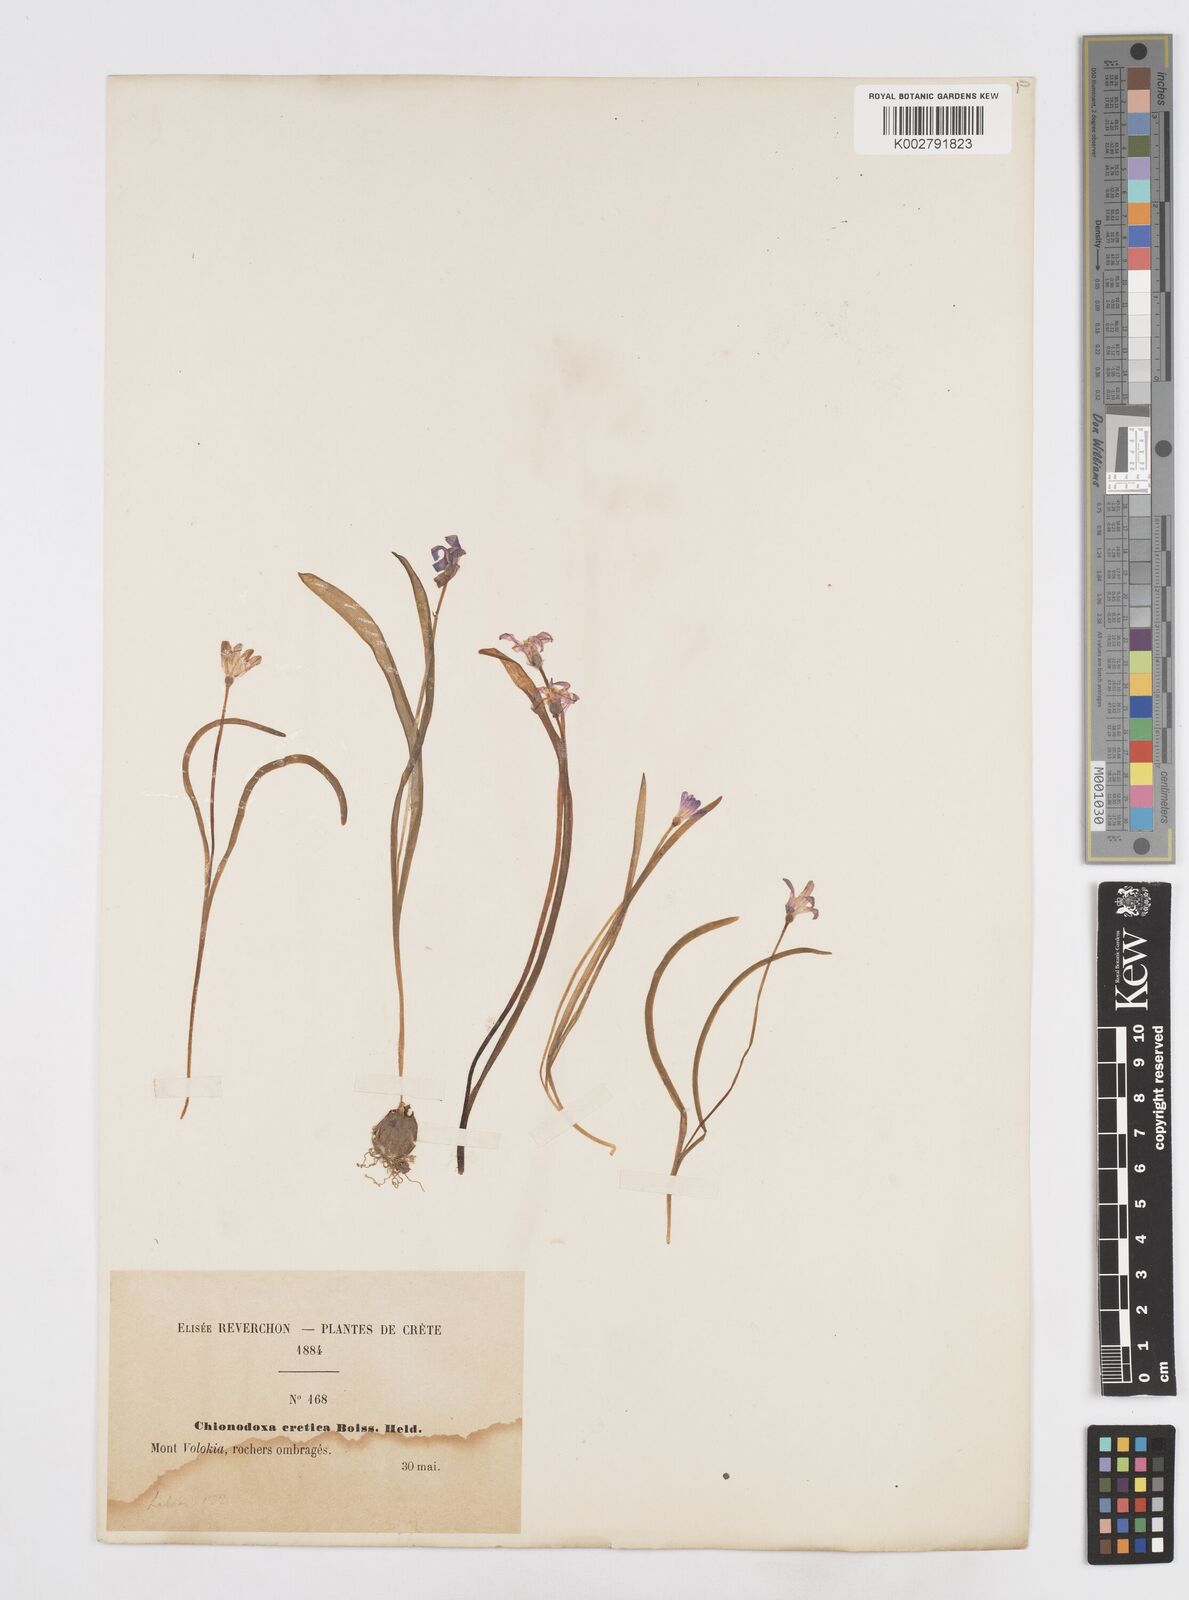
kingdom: Plantae
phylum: Tracheophyta
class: Liliopsida
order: Asparagales
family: Asparagaceae
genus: Scilla
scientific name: Scilla cretica
